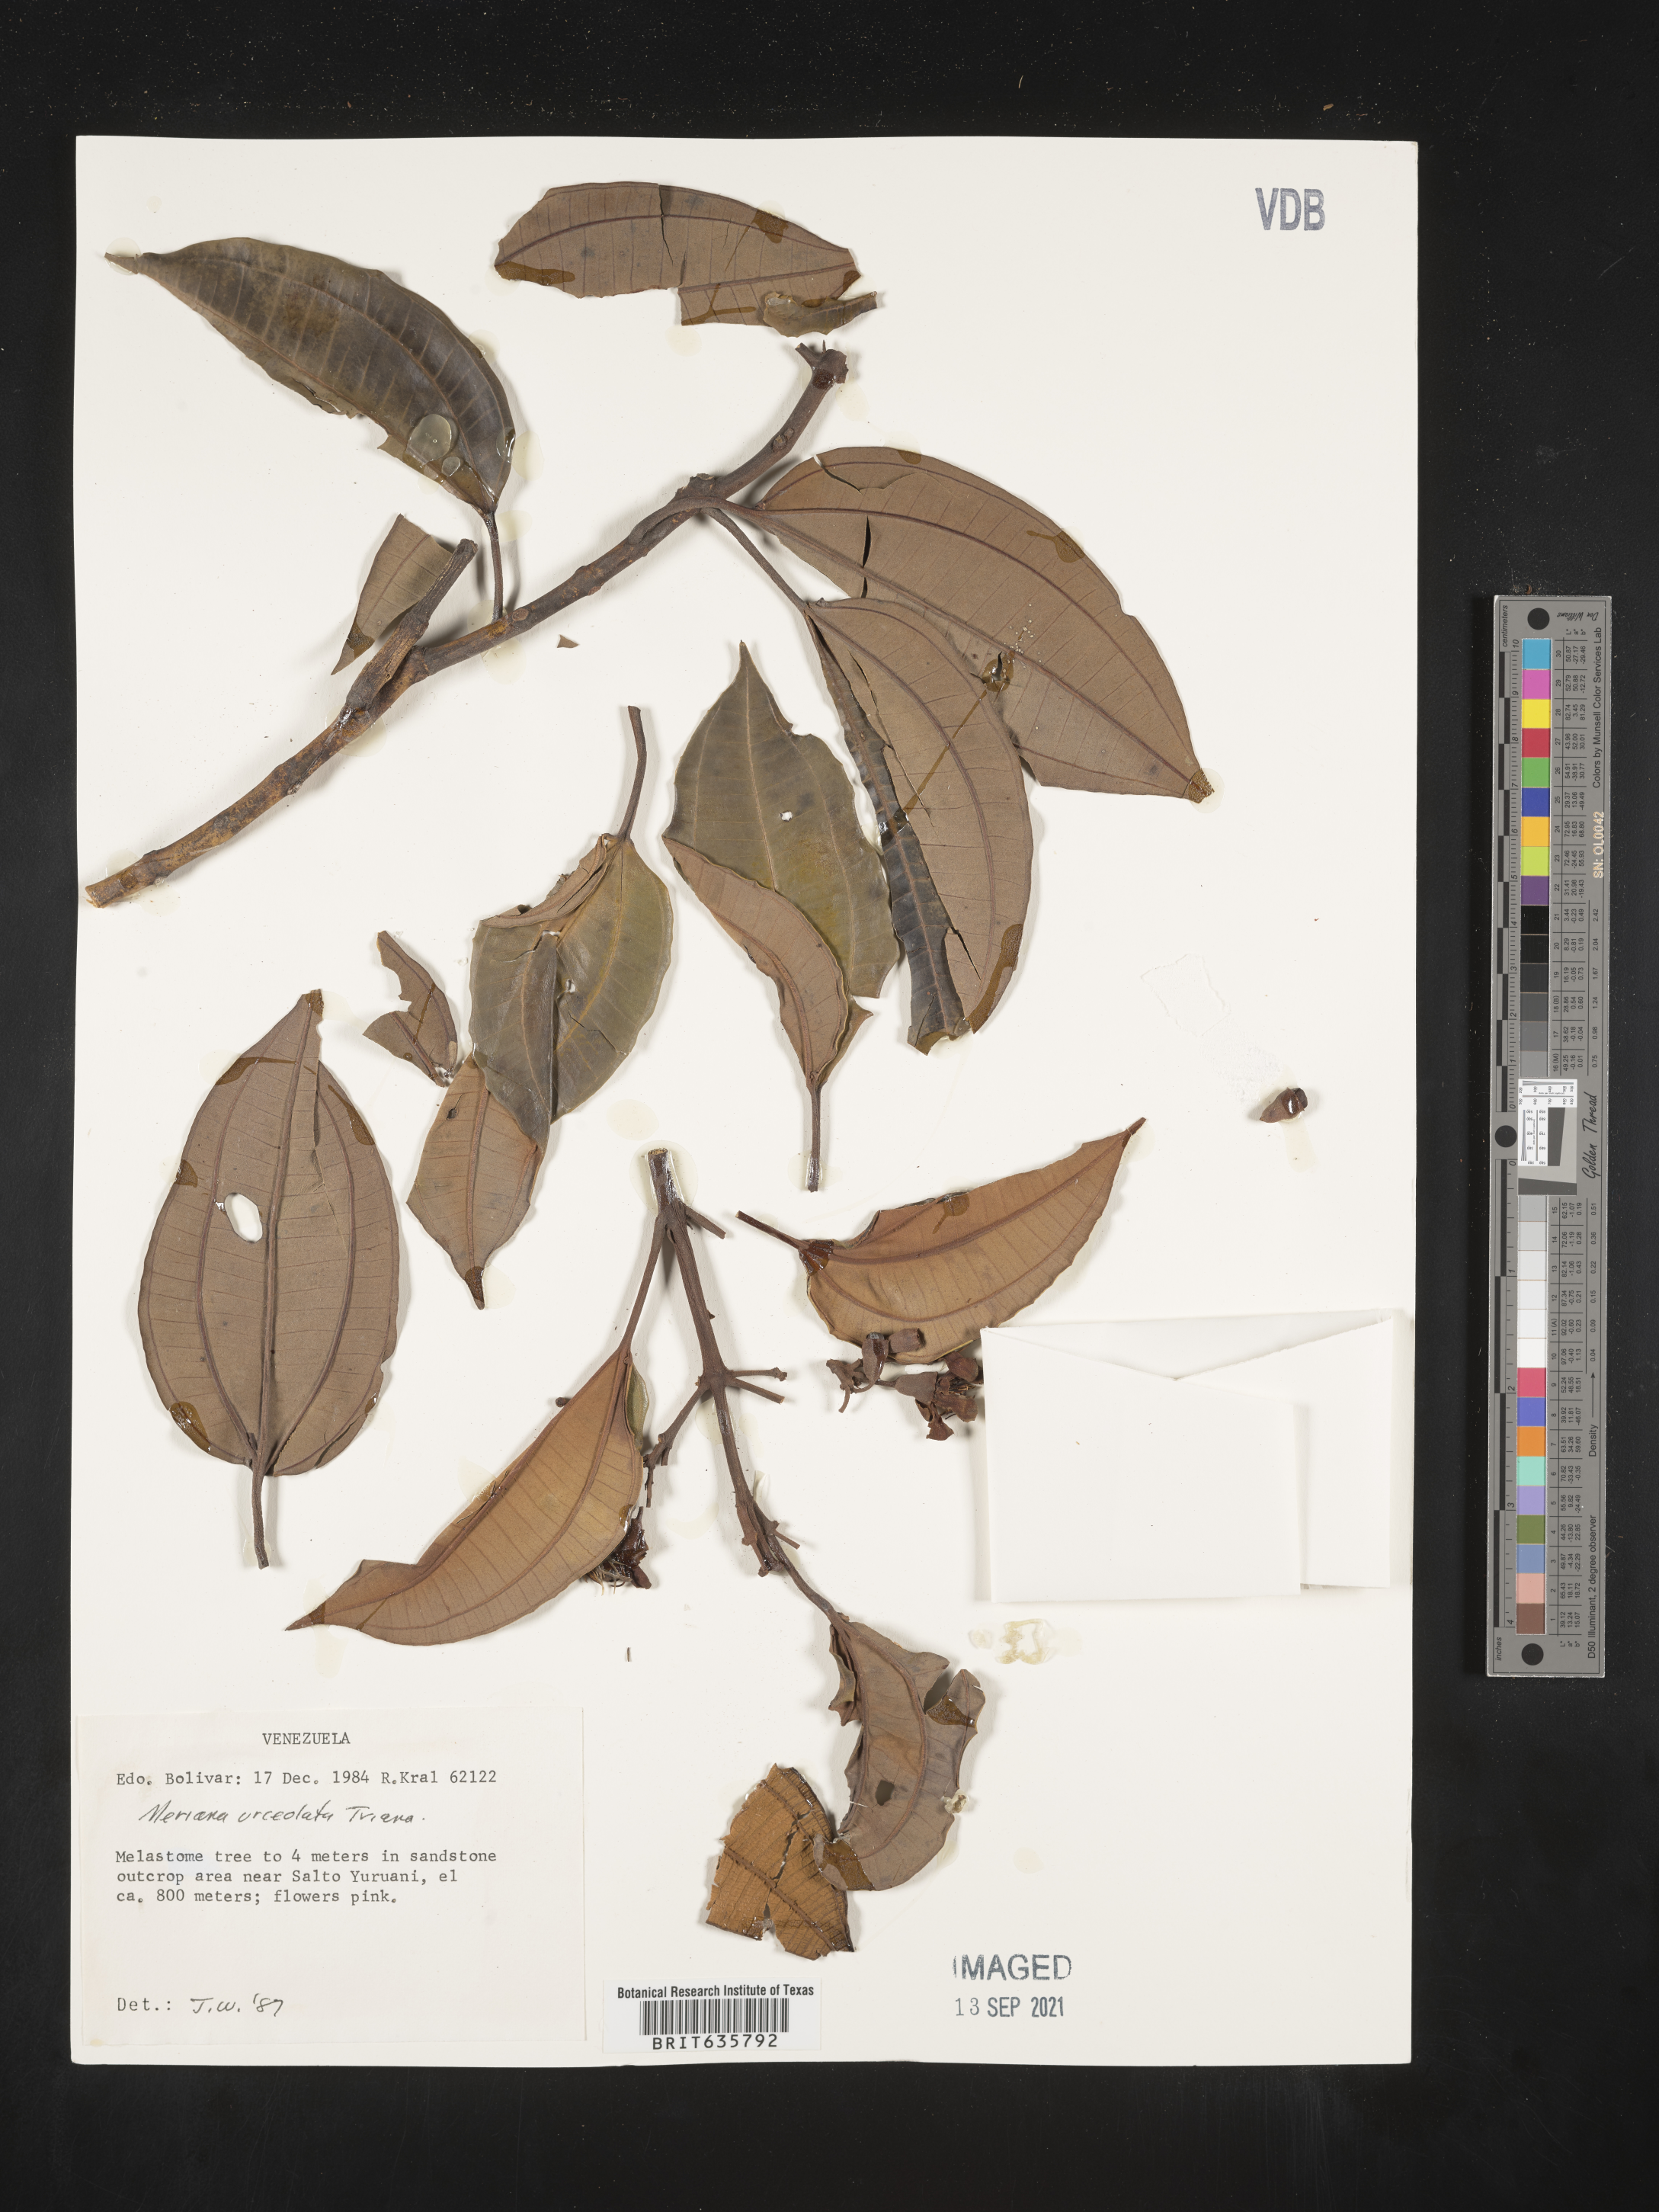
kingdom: Plantae
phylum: Tracheophyta
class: Magnoliopsida
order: Myrtales
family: Melastomataceae
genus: Meriania
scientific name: Meriania
